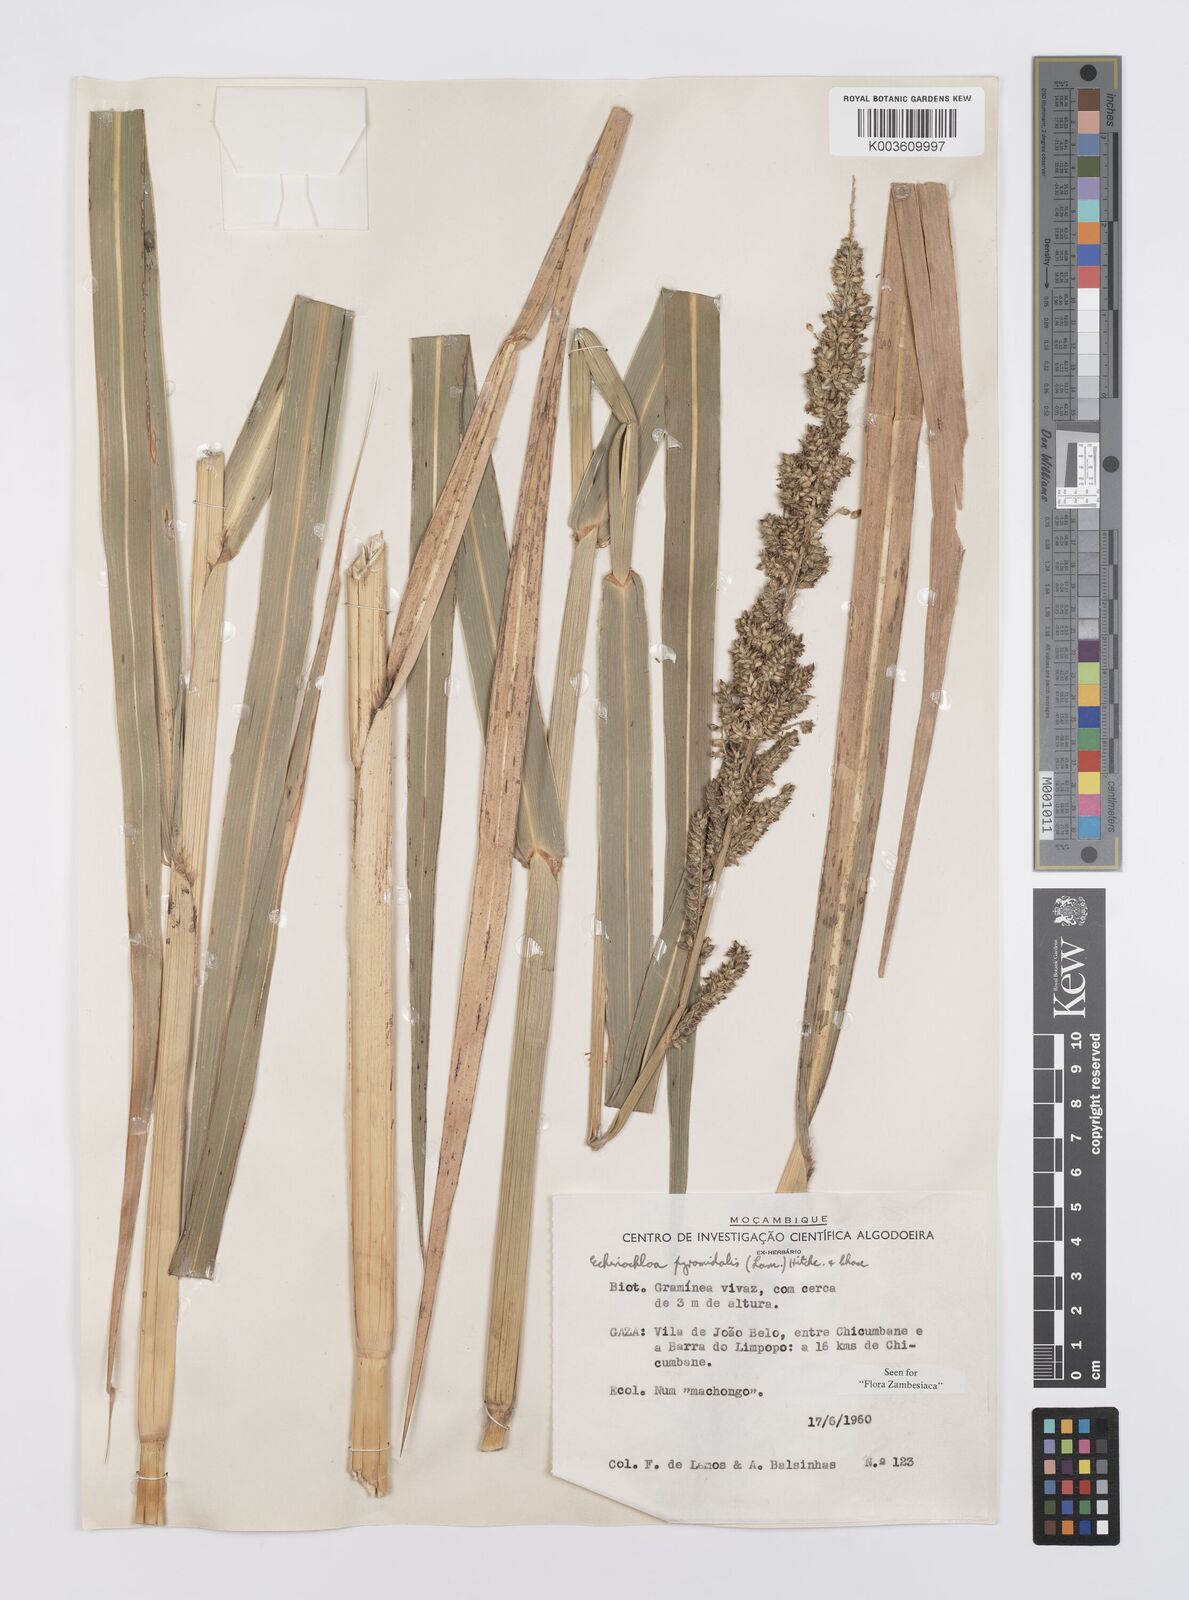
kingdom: Plantae
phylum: Tracheophyta
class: Liliopsida
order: Poales
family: Poaceae
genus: Echinochloa
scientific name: Echinochloa pyramidalis
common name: Antelope grass
